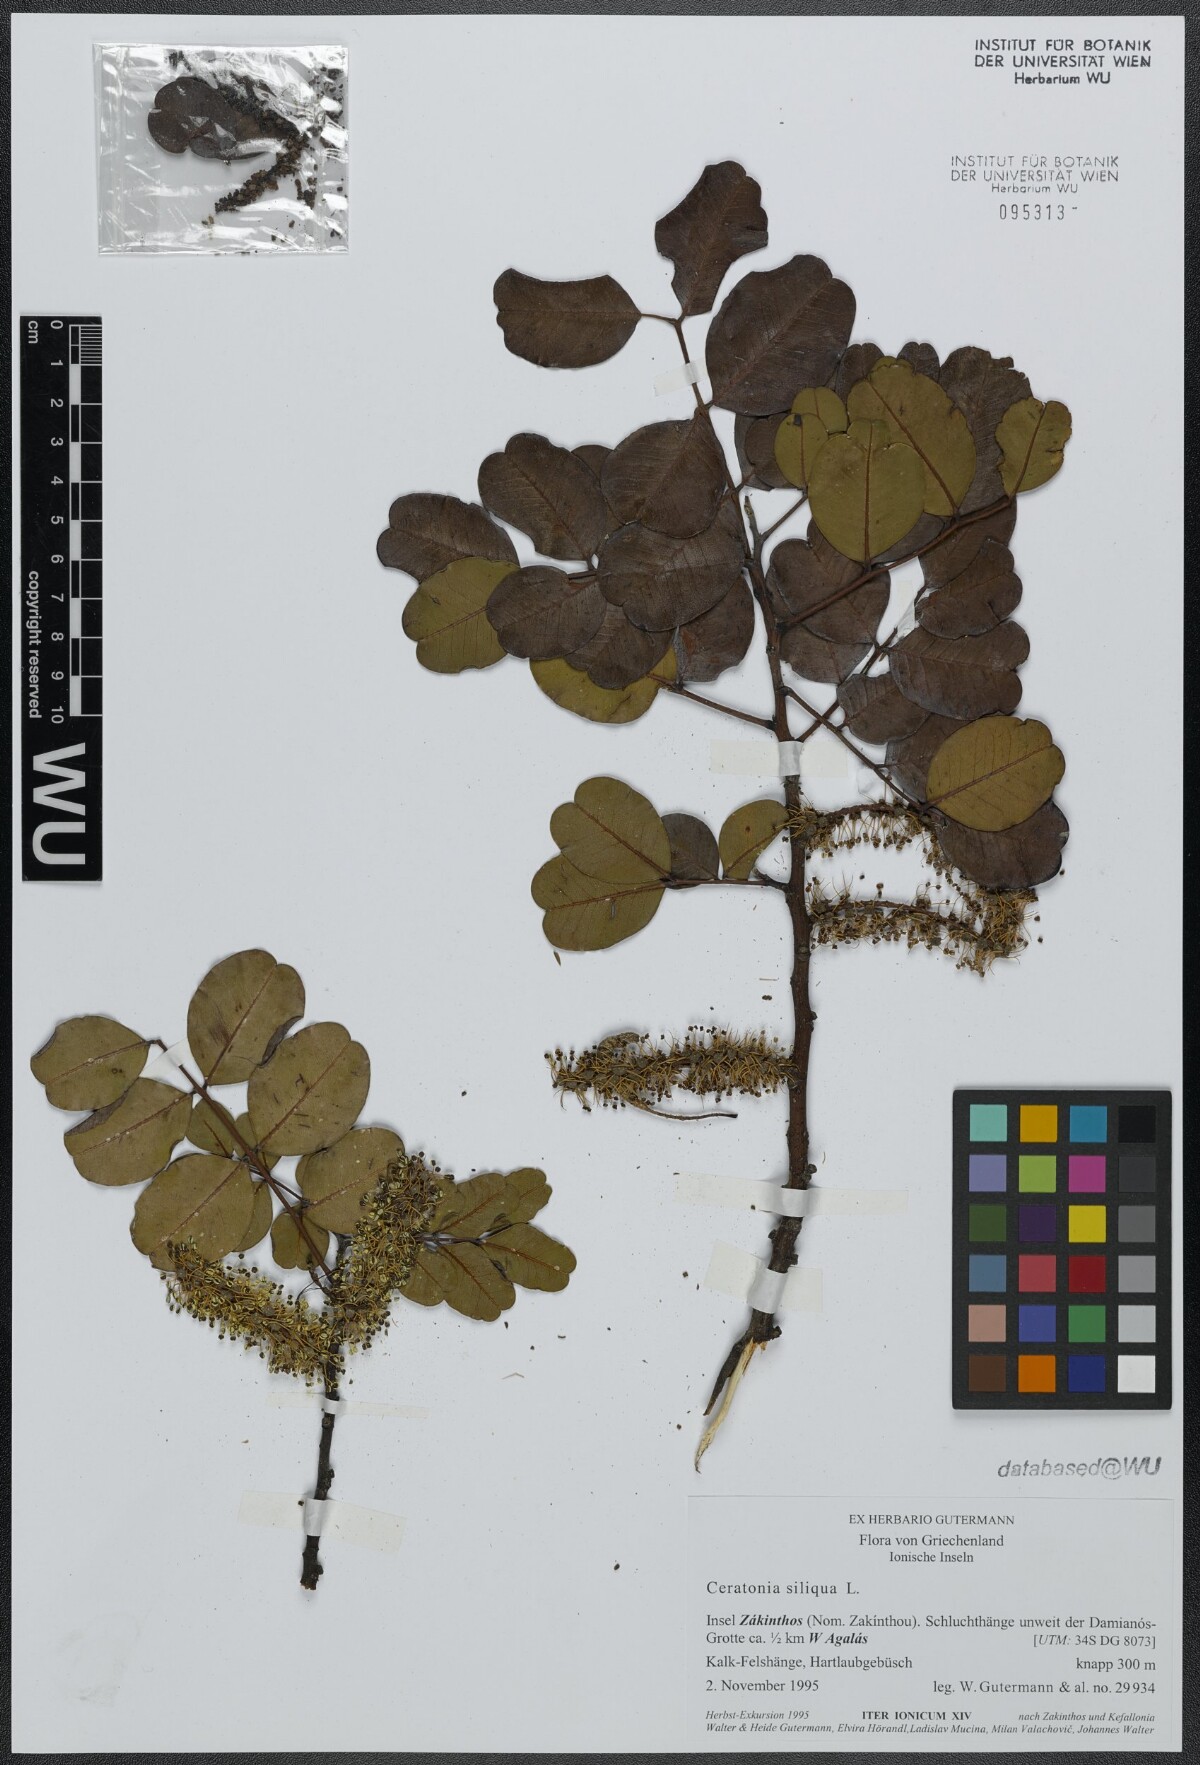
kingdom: Plantae
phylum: Tracheophyta
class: Magnoliopsida
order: Fabales
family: Fabaceae
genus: Ceratonia
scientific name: Ceratonia siliqua
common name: Carob
